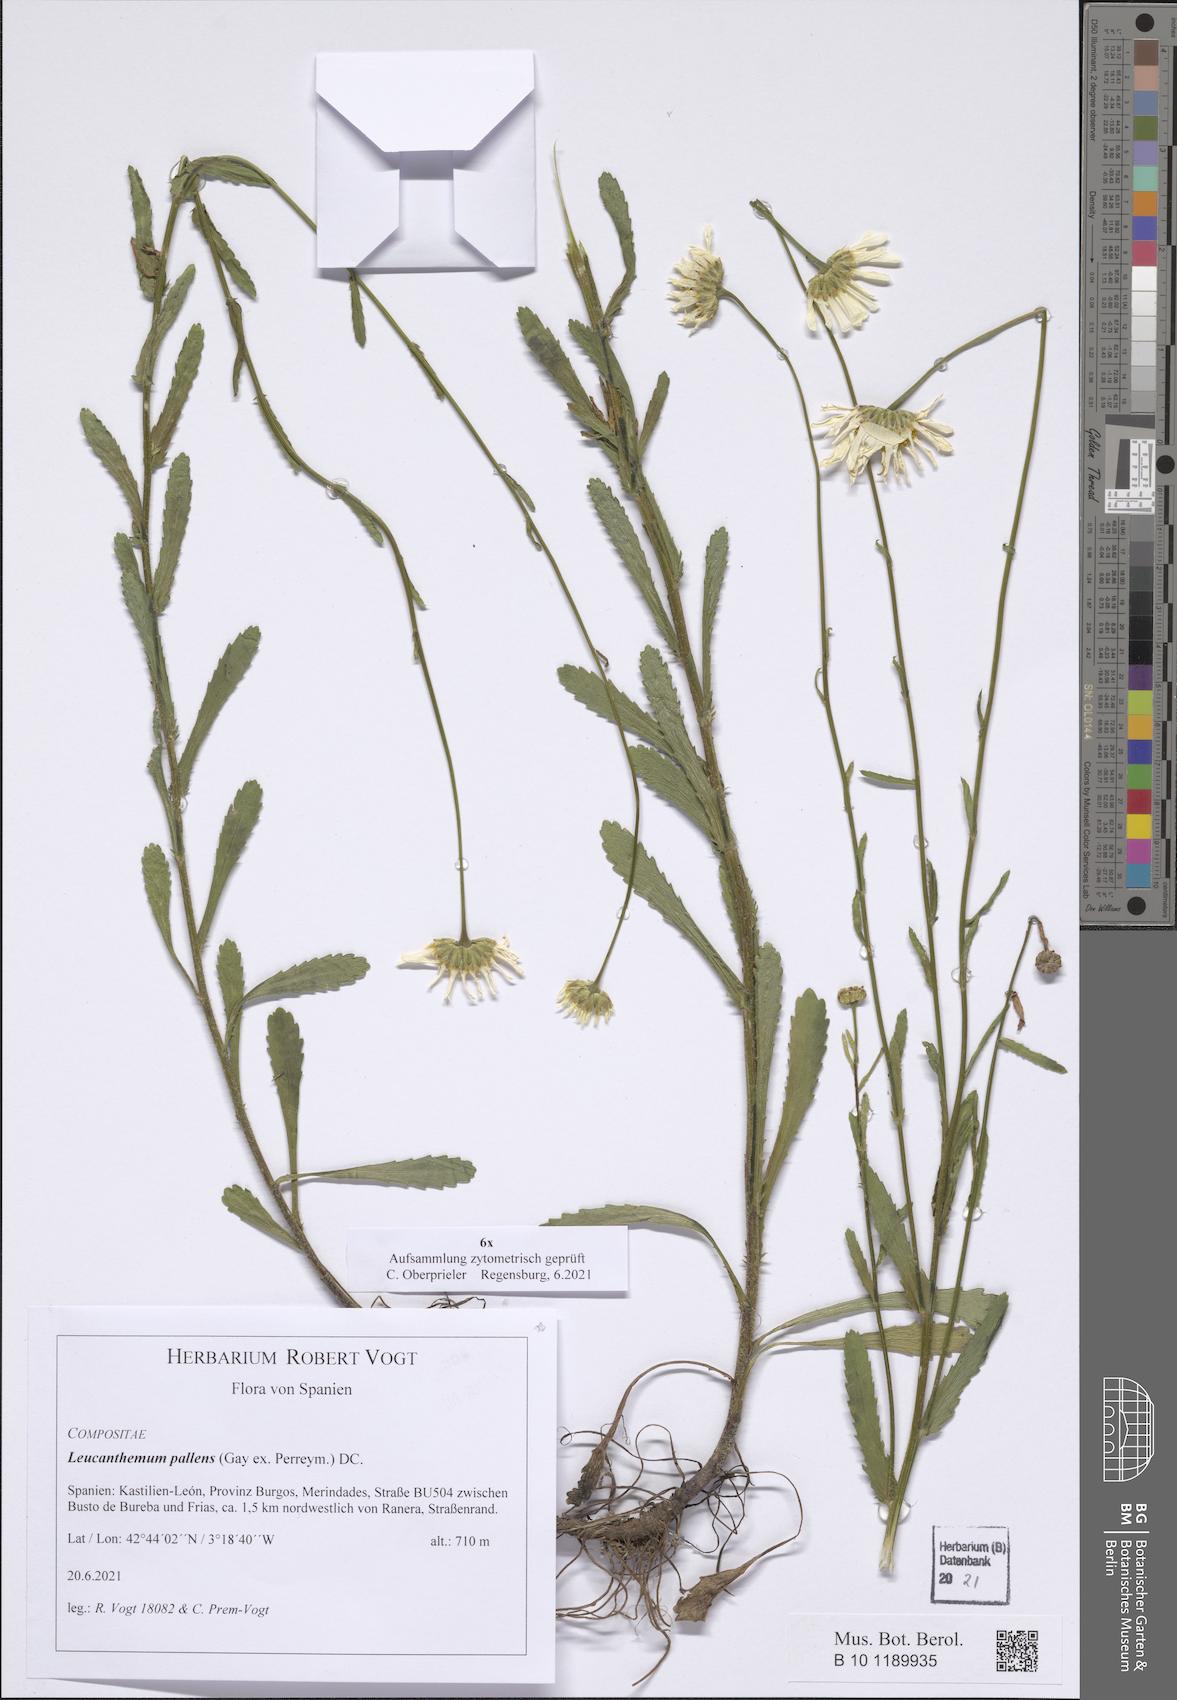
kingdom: Plantae
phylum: Tracheophyta
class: Magnoliopsida
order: Asterales
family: Asteraceae
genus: Leucanthemum
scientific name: Leucanthemum pallens
